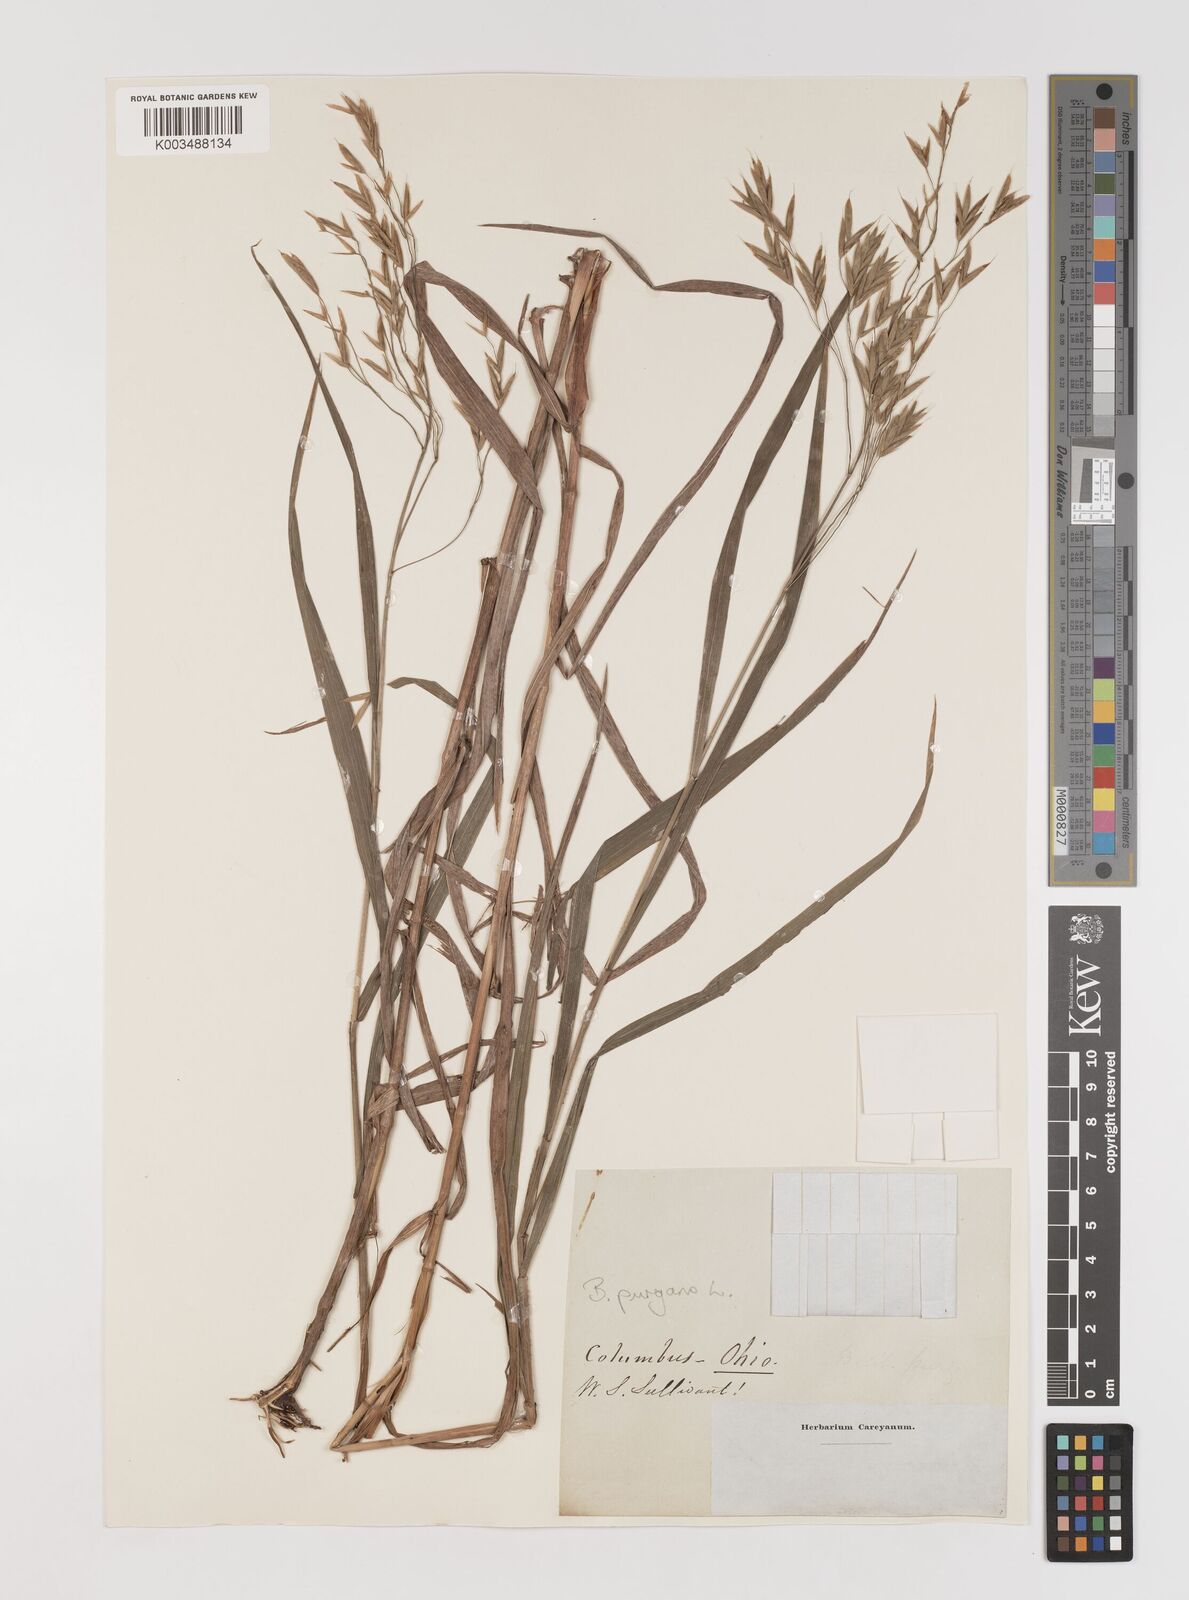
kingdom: Plantae
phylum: Tracheophyta
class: Liliopsida
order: Poales
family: Poaceae
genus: Bromus
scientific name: Bromus latiglumis
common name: Broad-glumed brome
